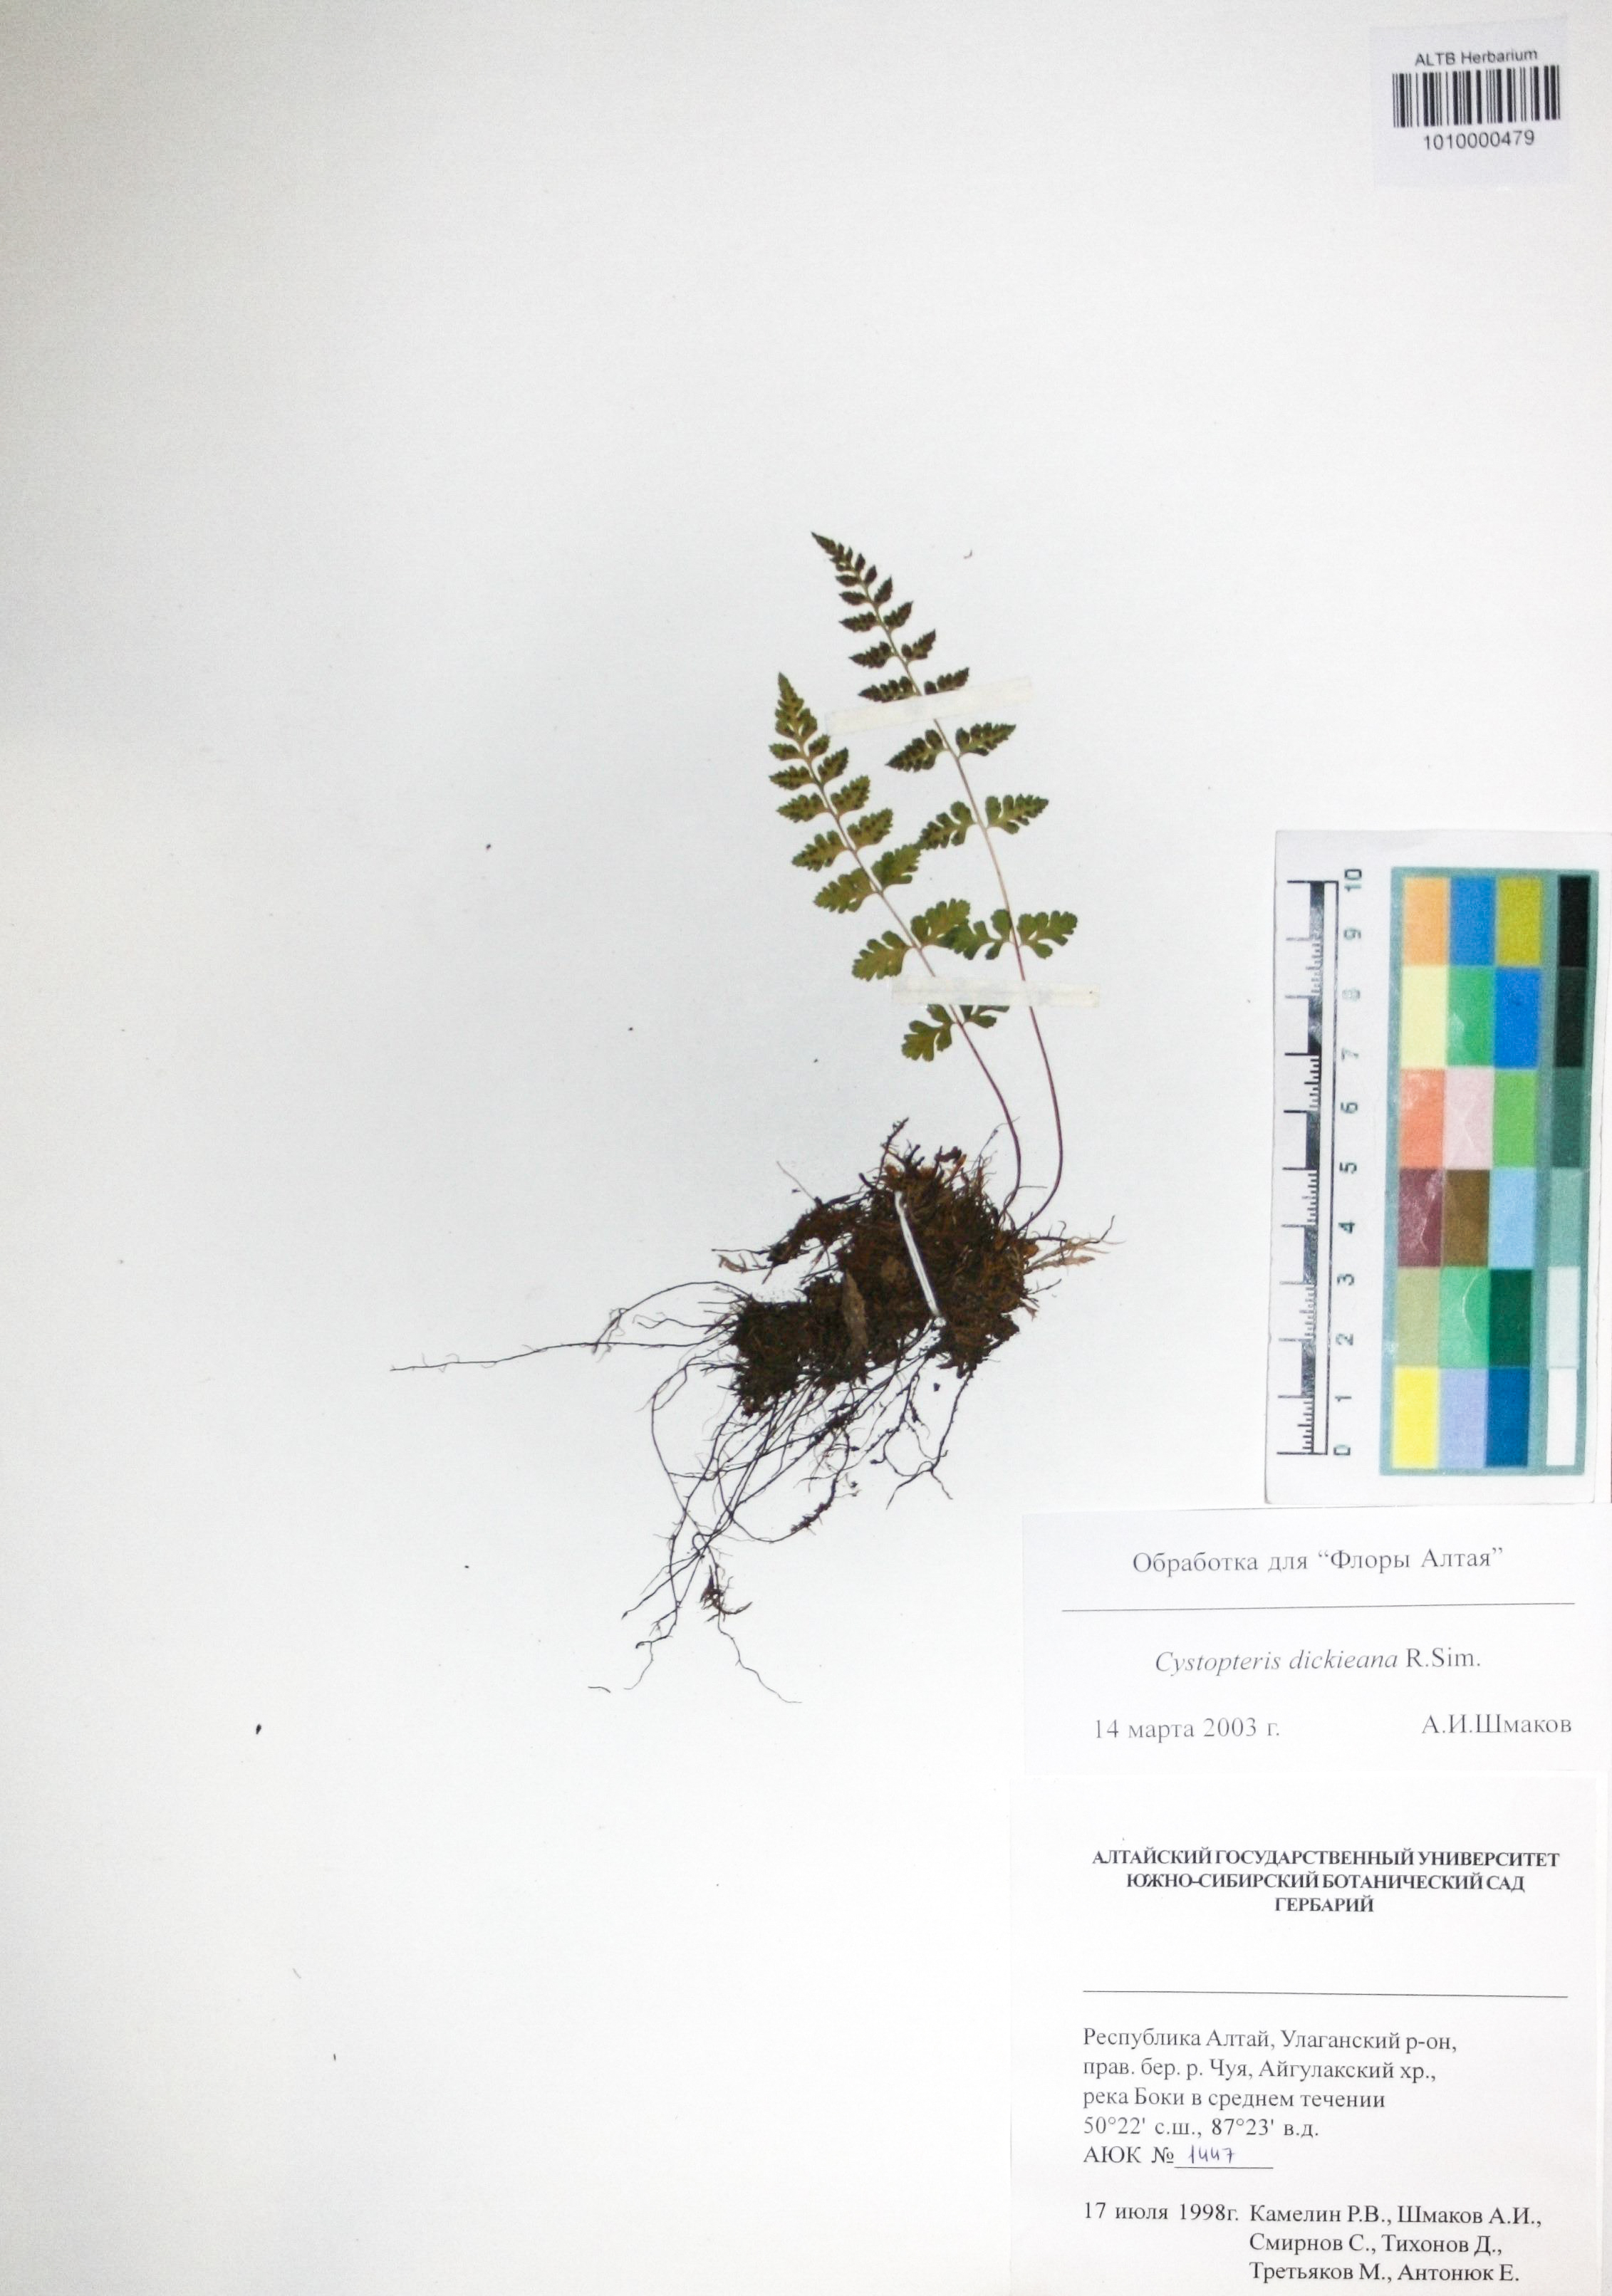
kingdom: Plantae
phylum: Tracheophyta
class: Polypodiopsida
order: Polypodiales
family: Cystopteridaceae
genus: Cystopteris
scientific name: Cystopteris dickieana
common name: Dickie's bladder-fern
